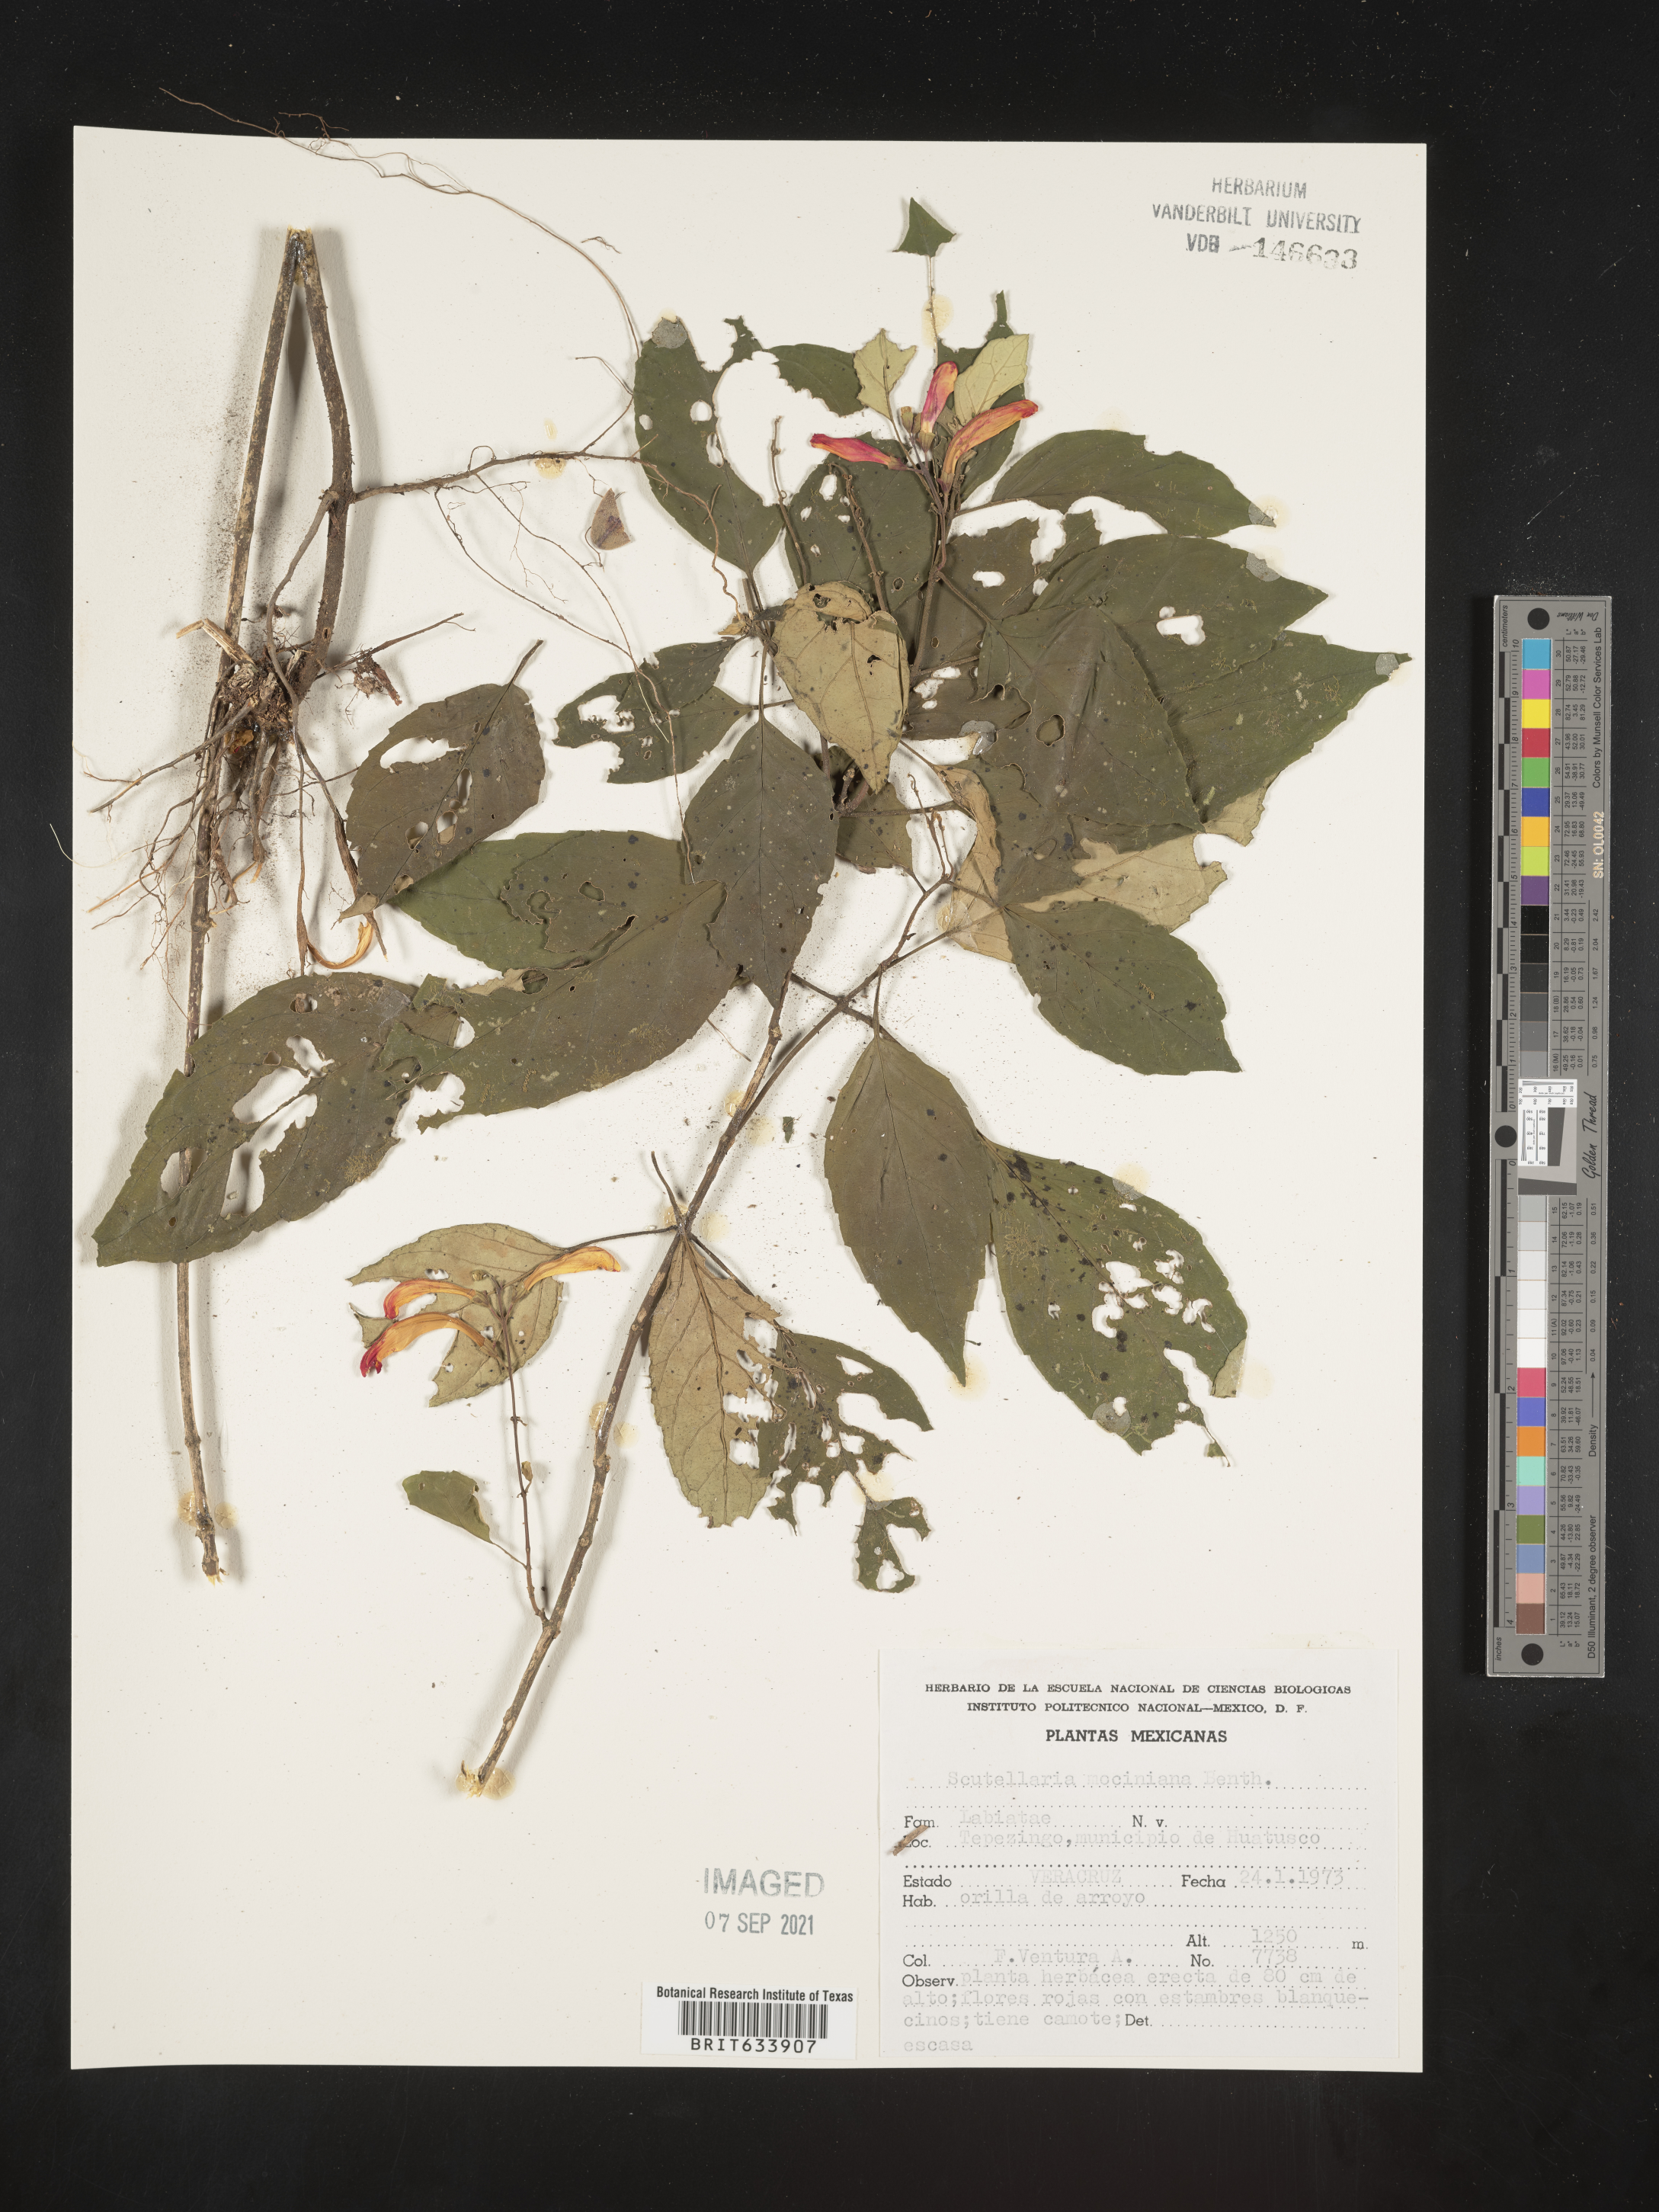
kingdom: Plantae
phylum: Tracheophyta
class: Magnoliopsida
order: Lamiales
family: Lamiaceae
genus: Scutellaria
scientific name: Scutellaria
